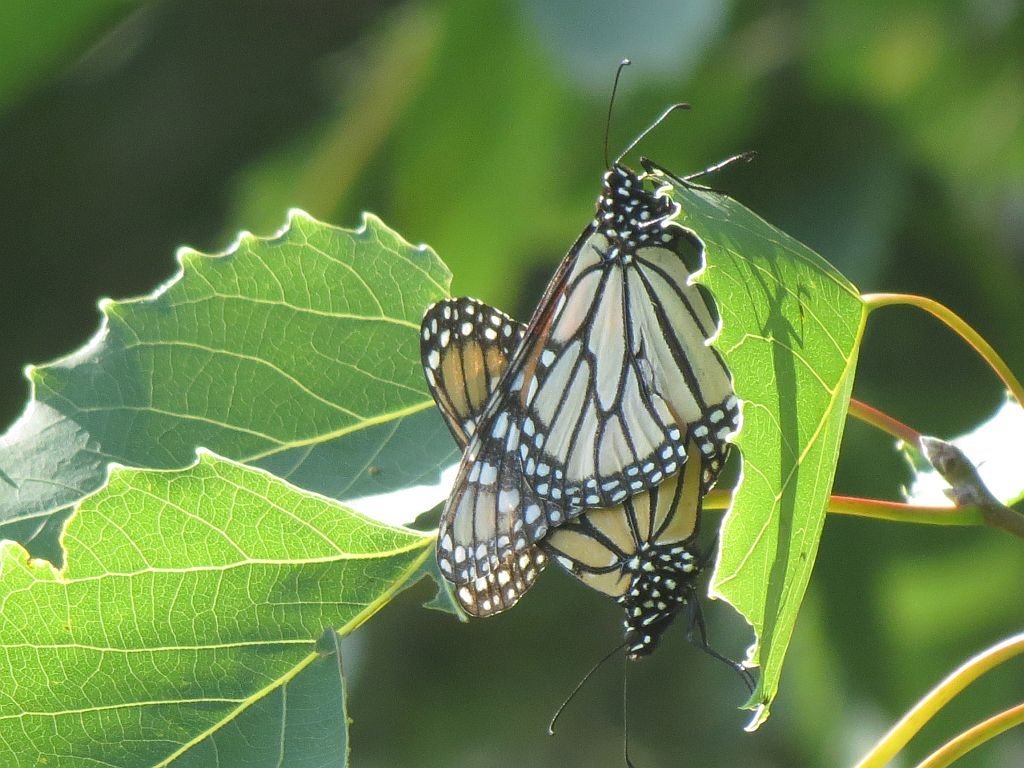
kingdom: Animalia
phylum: Arthropoda
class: Insecta
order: Lepidoptera
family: Nymphalidae
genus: Danaus
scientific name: Danaus plexippus
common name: Monarch
